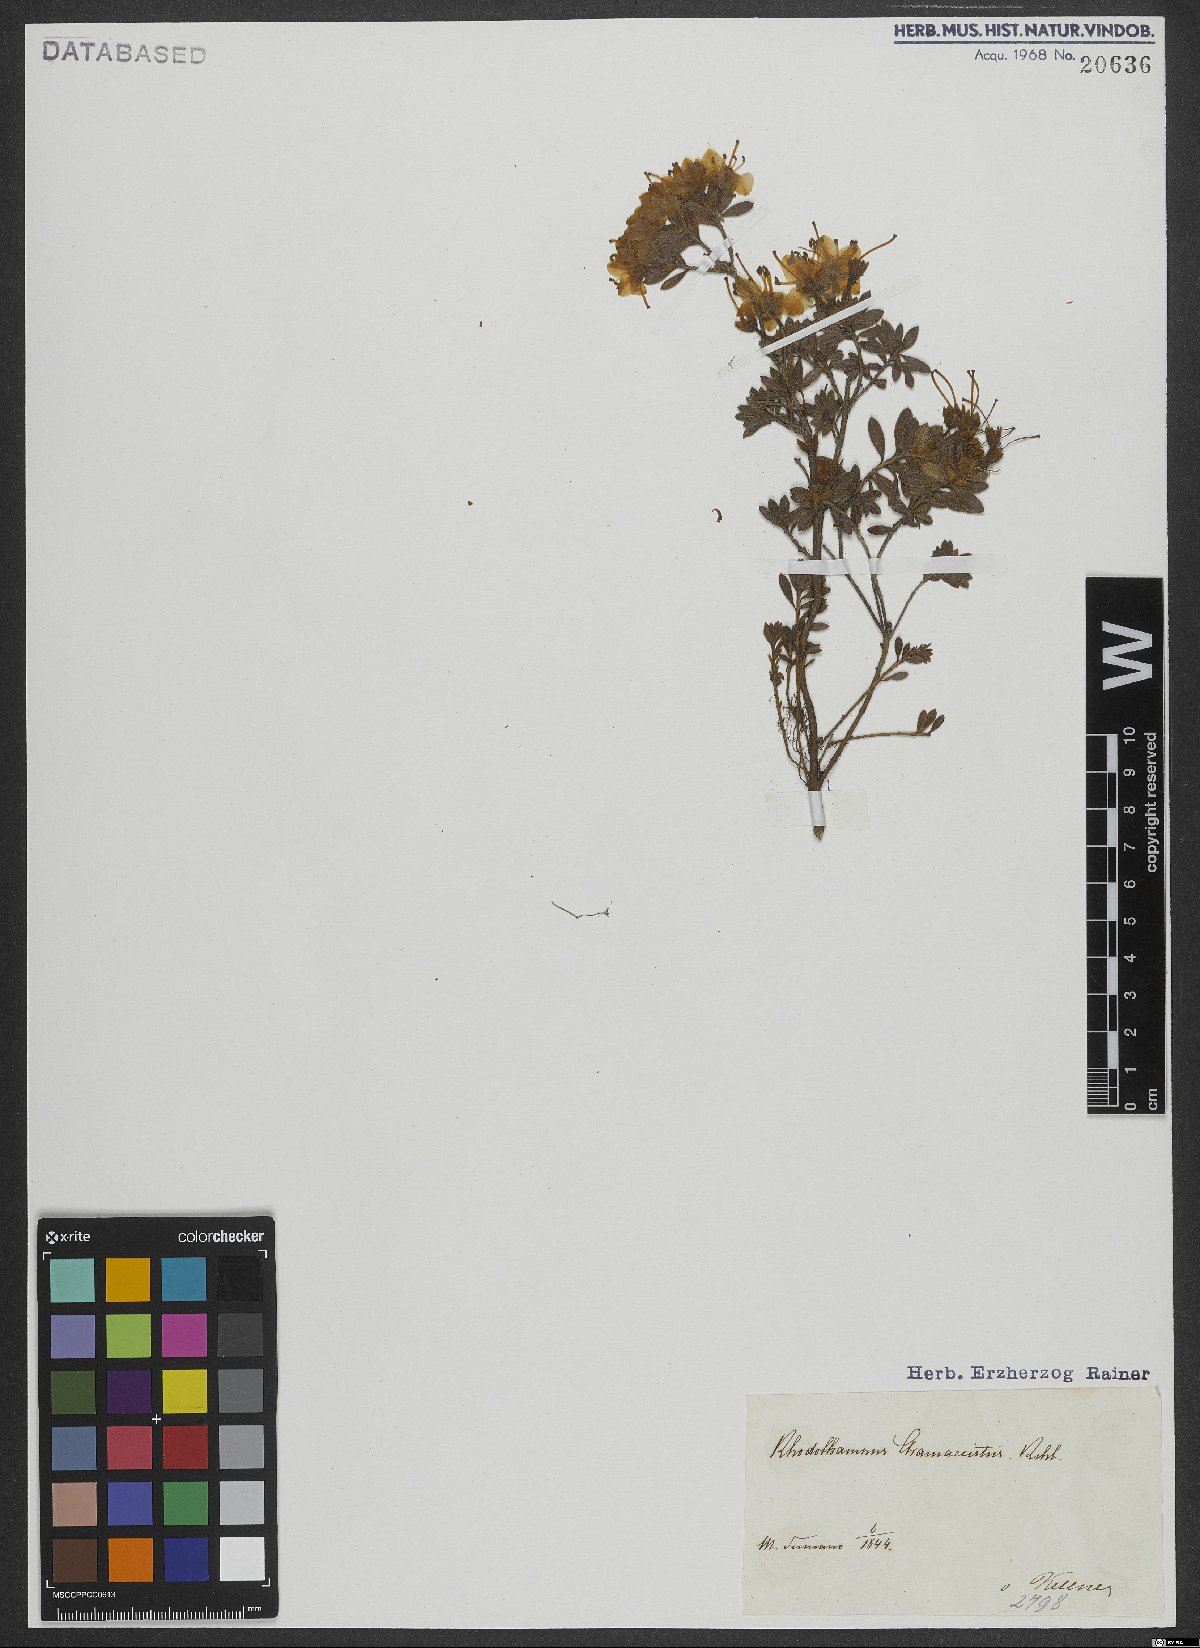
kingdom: Plantae
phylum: Tracheophyta
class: Magnoliopsida
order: Ericales
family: Ericaceae
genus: Rhodothamnus
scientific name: Rhodothamnus chamaecistus
